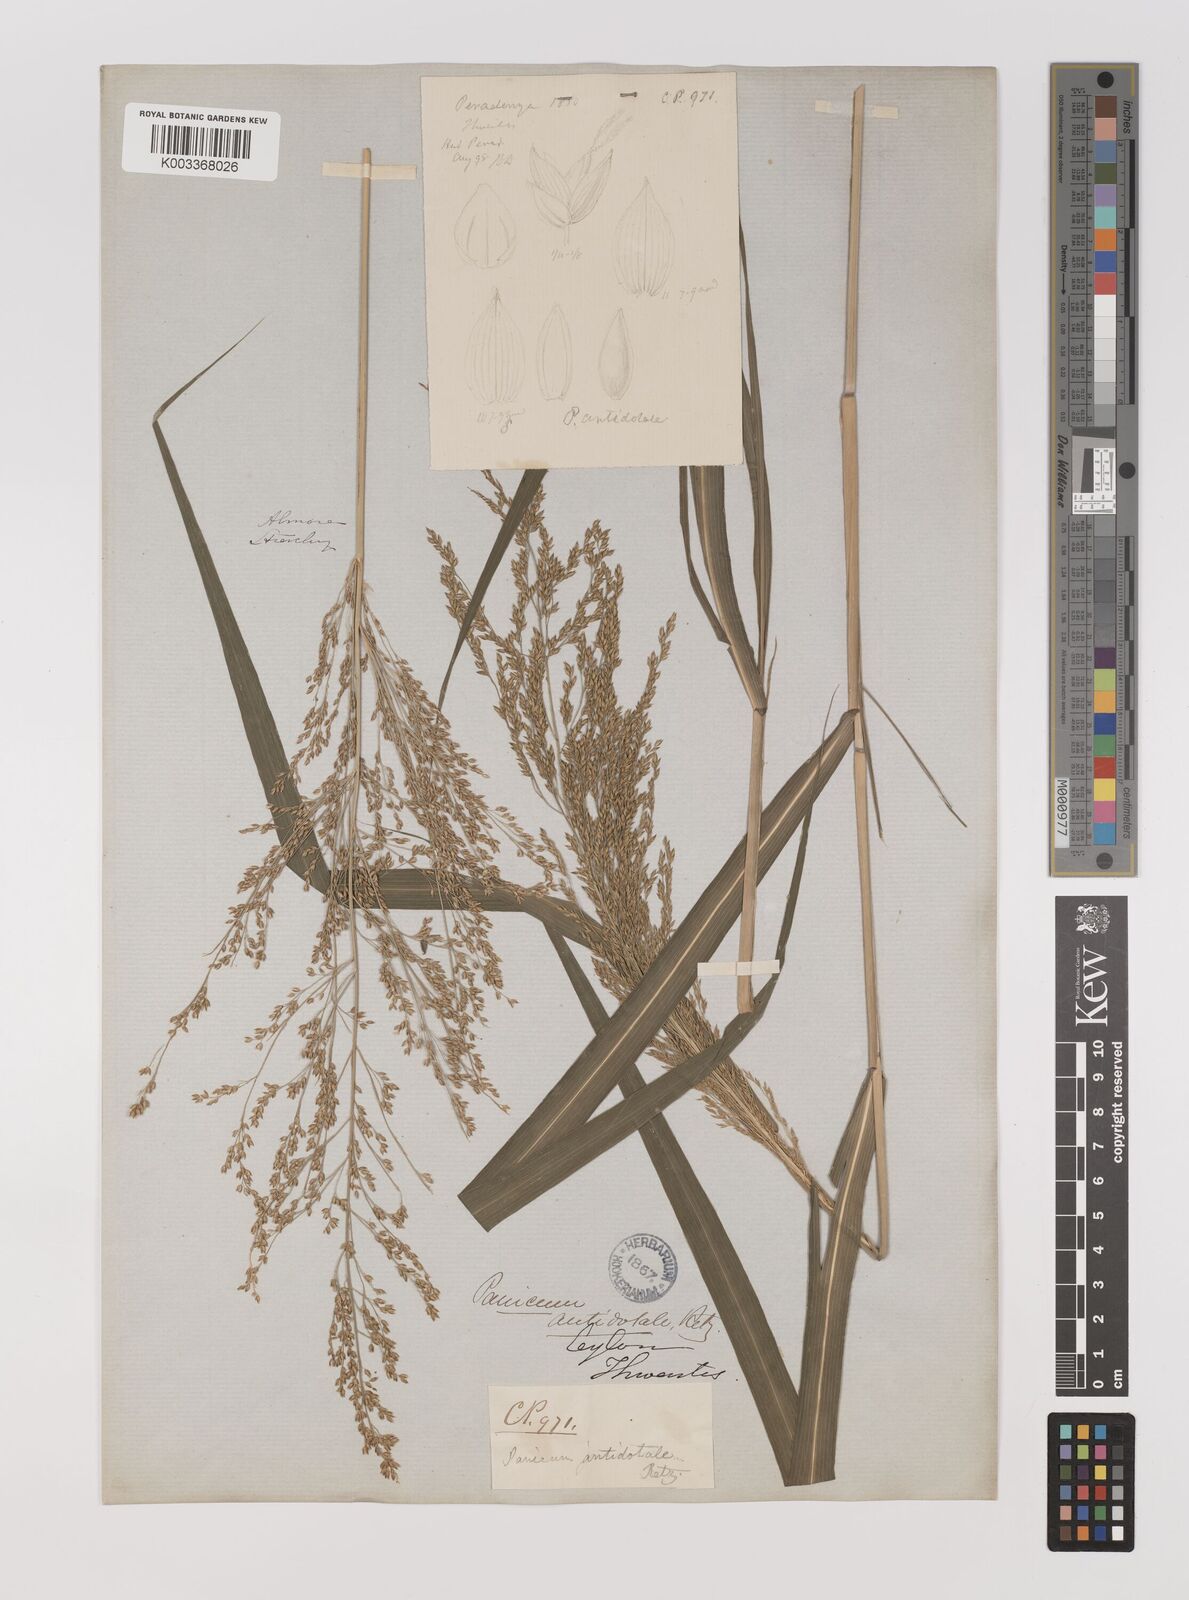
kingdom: Plantae
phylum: Tracheophyta
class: Liliopsida
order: Poales
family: Poaceae
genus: Panicum
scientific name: Panicum antidotale
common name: Blue panicum
